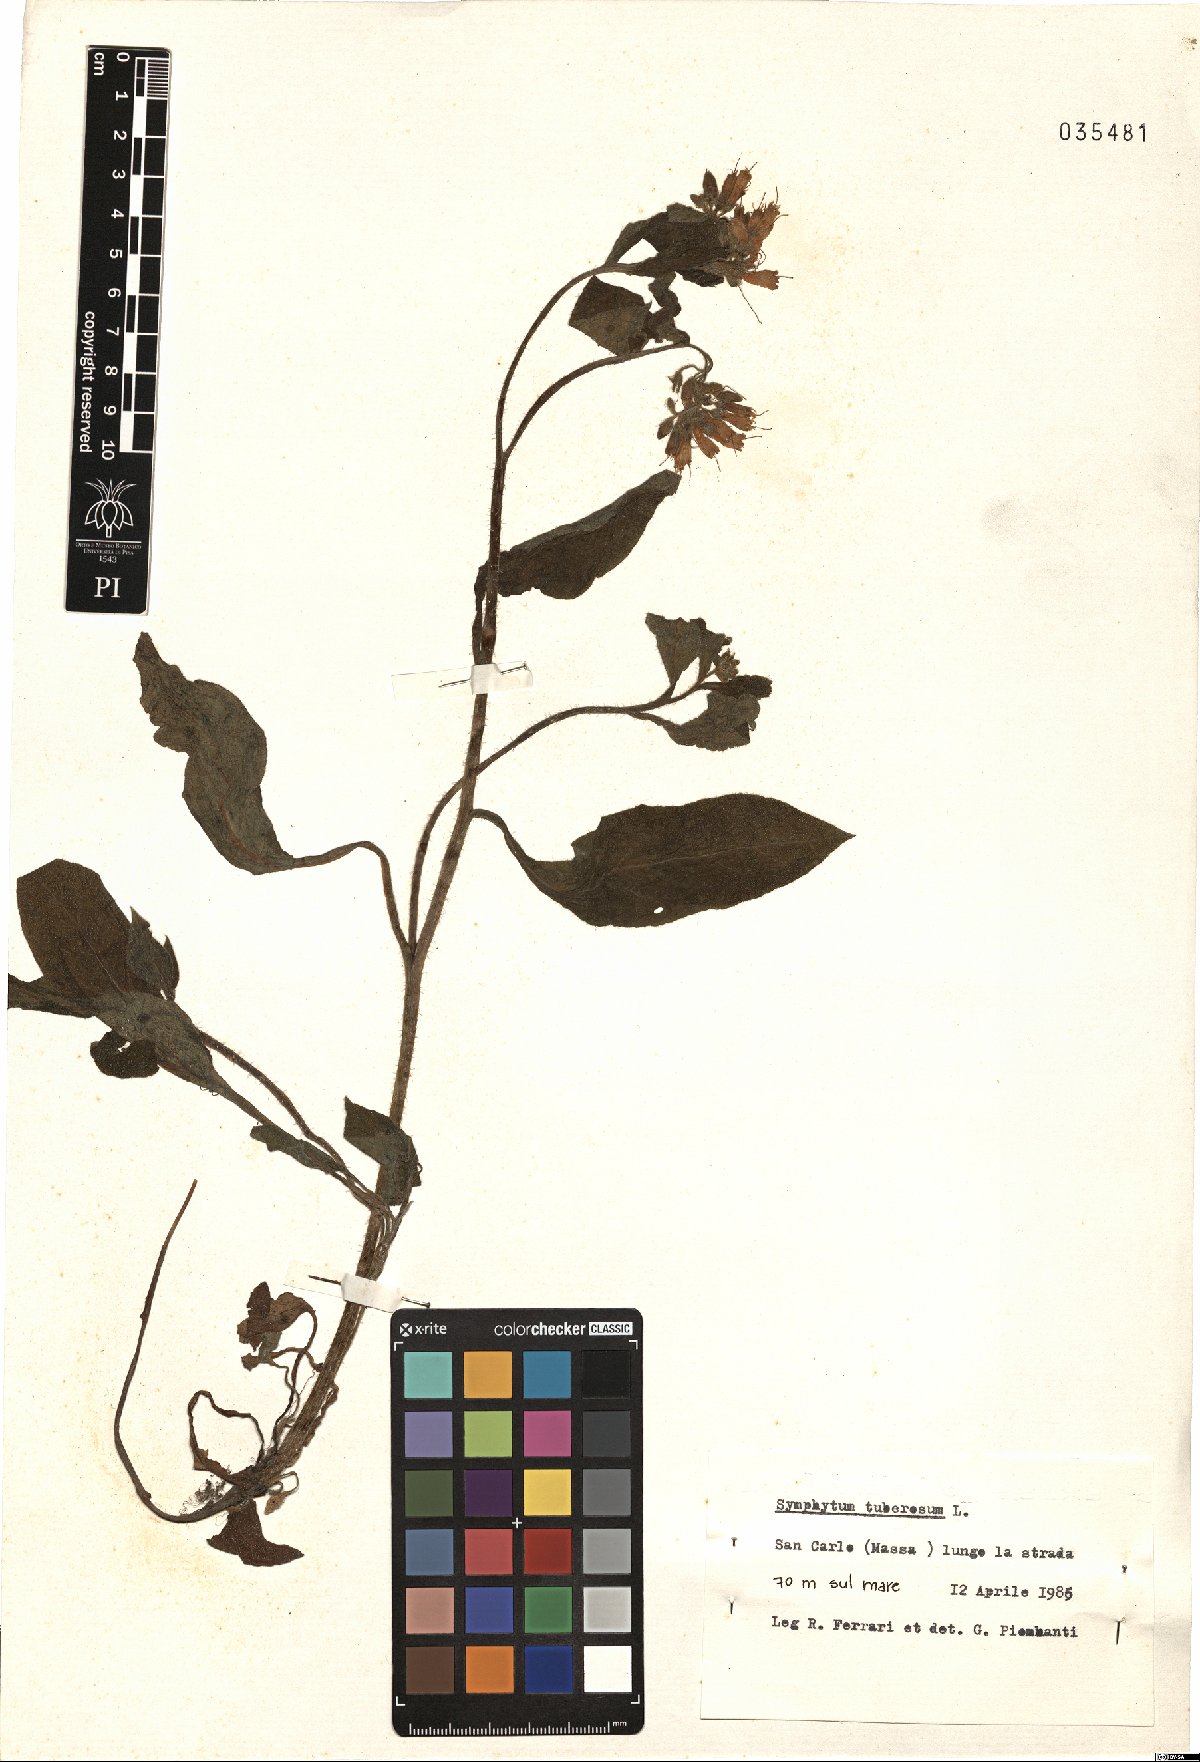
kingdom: Plantae
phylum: Tracheophyta
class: Magnoliopsida
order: Boraginales
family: Boraginaceae
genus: Symphytum
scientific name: Symphytum tuberosum
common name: Tuberous comfrey
